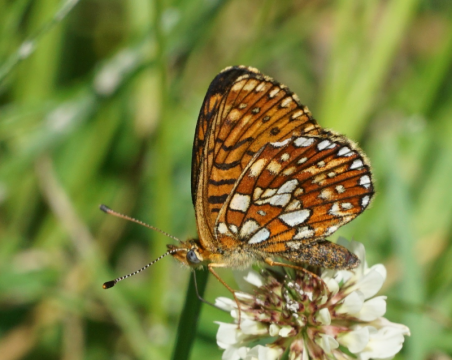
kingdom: Animalia
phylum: Arthropoda
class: Insecta
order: Lepidoptera
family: Nymphalidae
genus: Boloria
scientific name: Boloria eunomia
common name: Bog Fritillary
